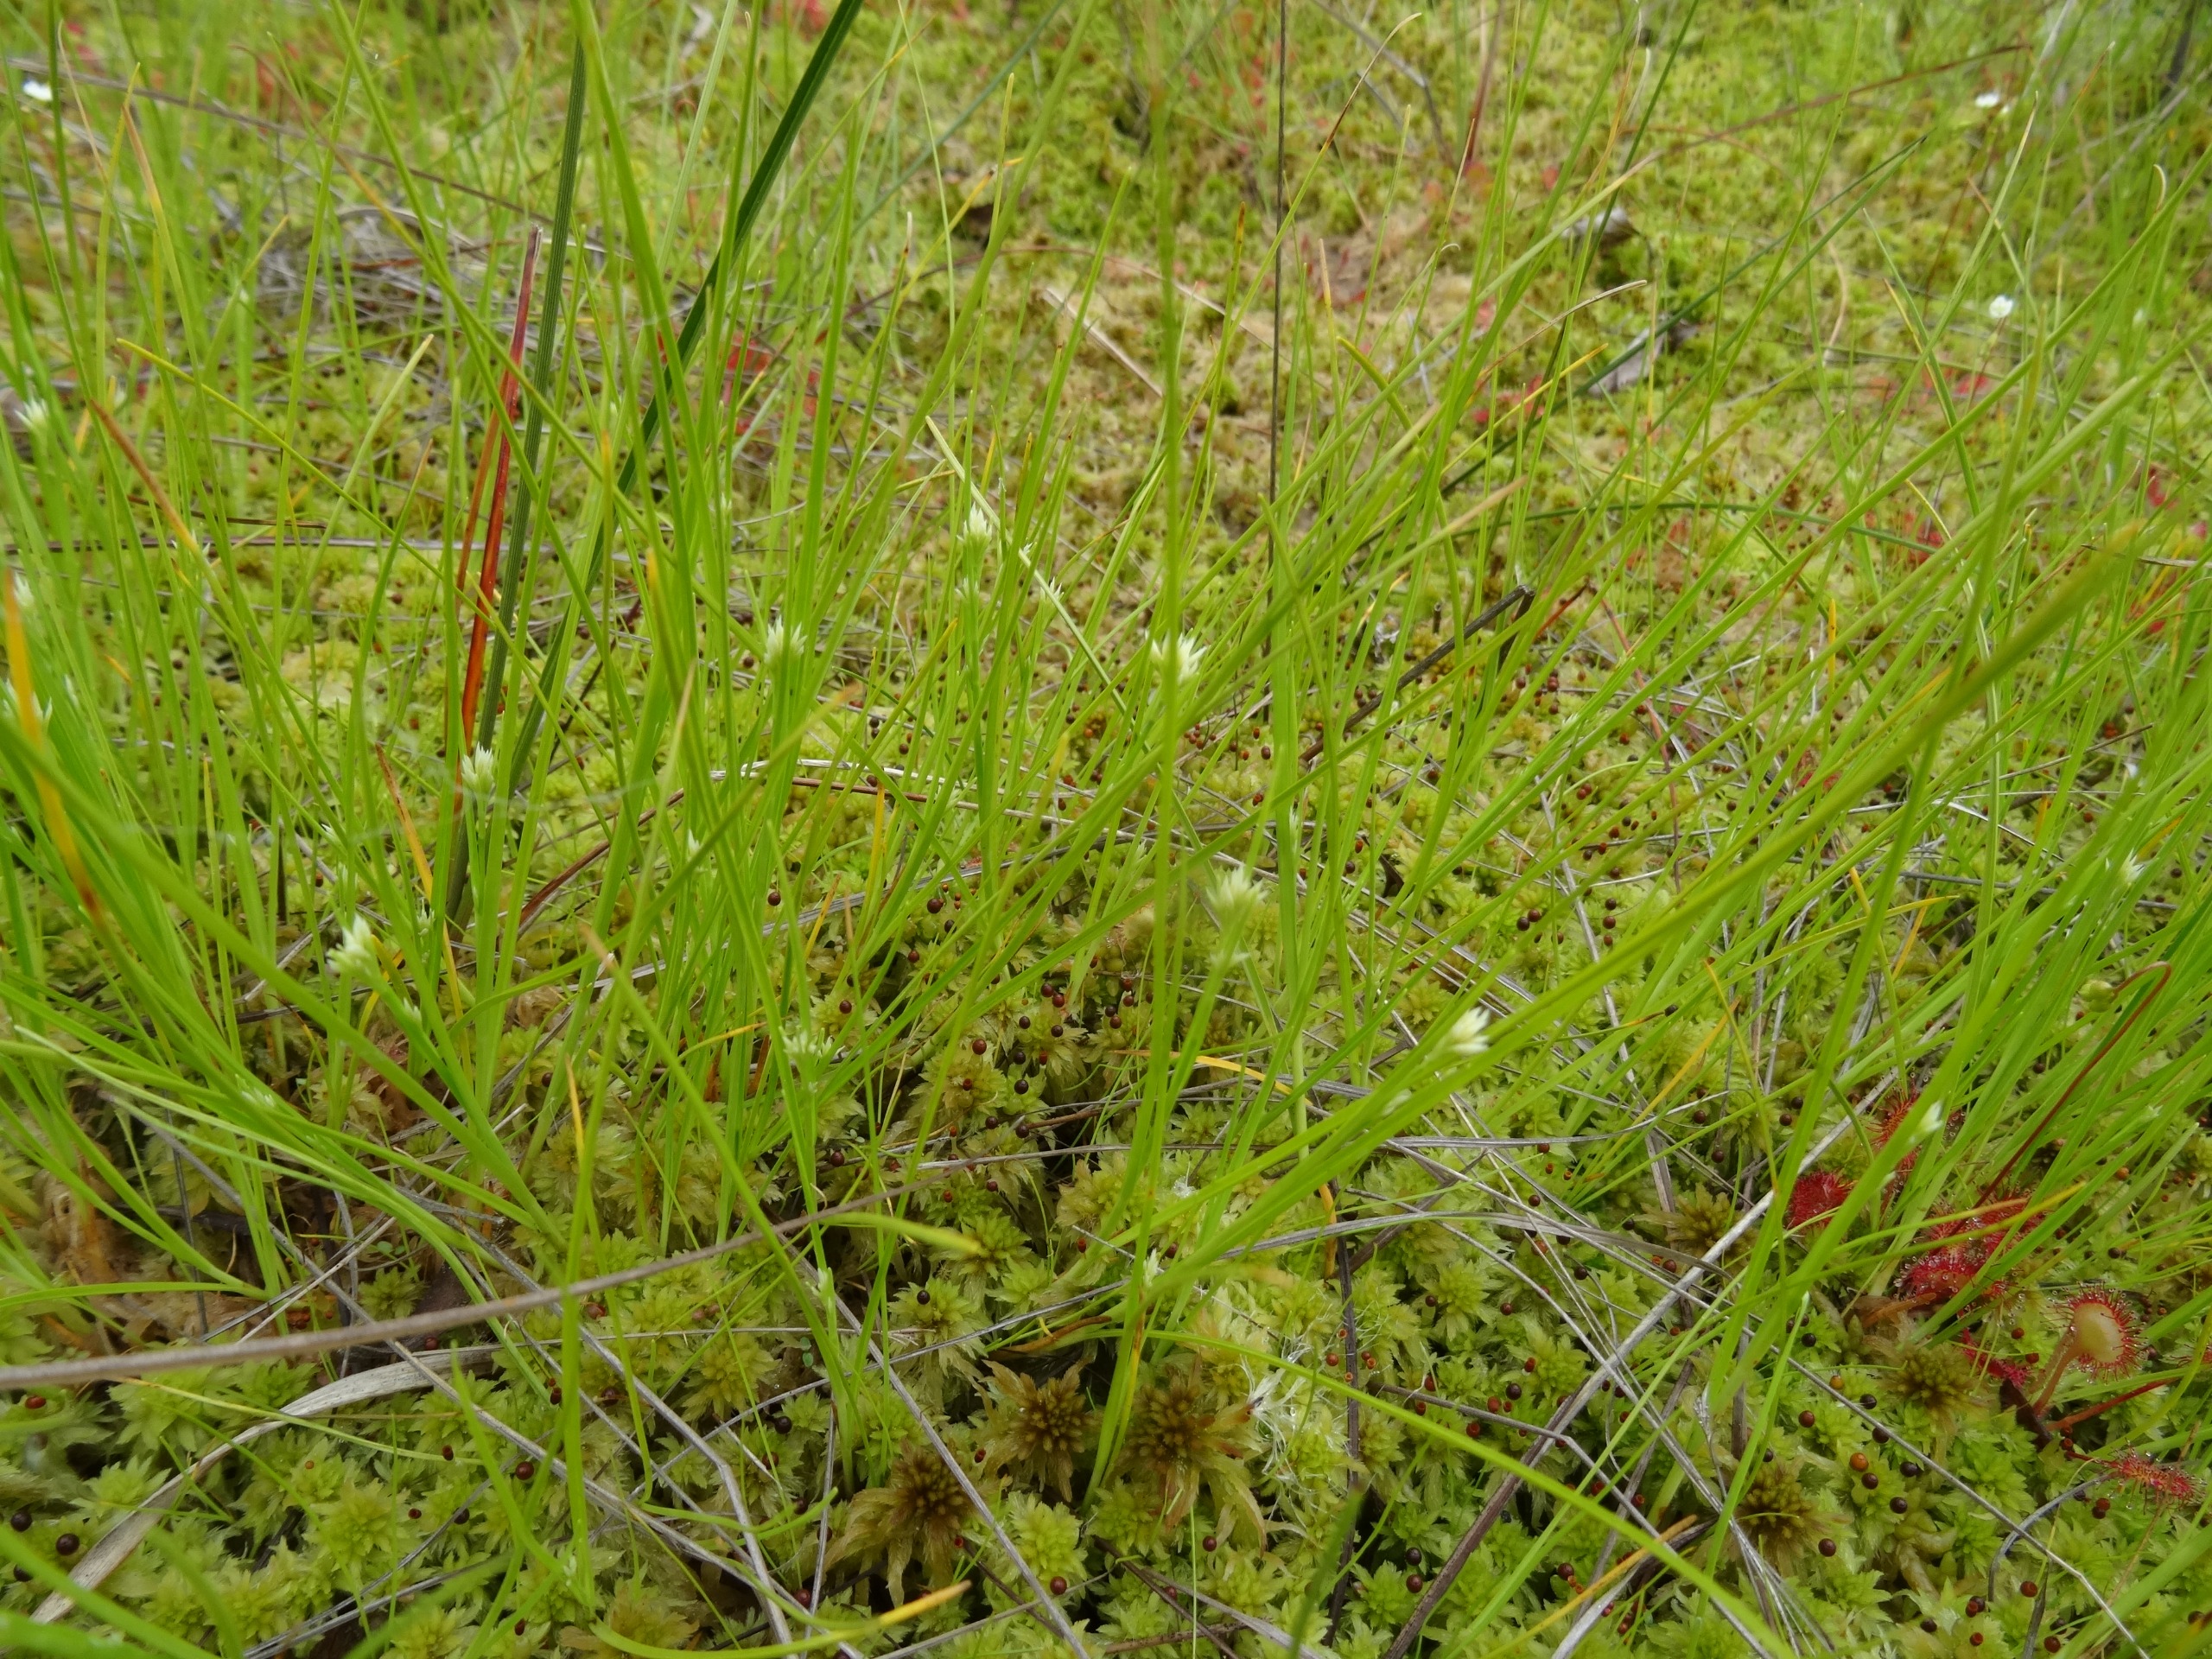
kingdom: Plantae
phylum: Tracheophyta
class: Liliopsida
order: Poales
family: Cyperaceae
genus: Rhynchospora
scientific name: Rhynchospora alba
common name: Hvid næbfrø
